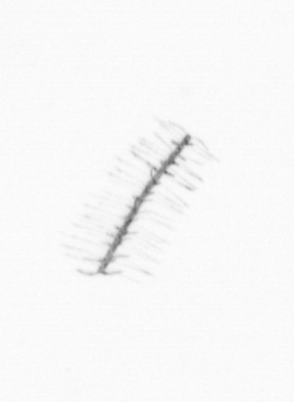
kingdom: Chromista
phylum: Ochrophyta
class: Bacillariophyceae
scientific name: Bacillariophyceae
